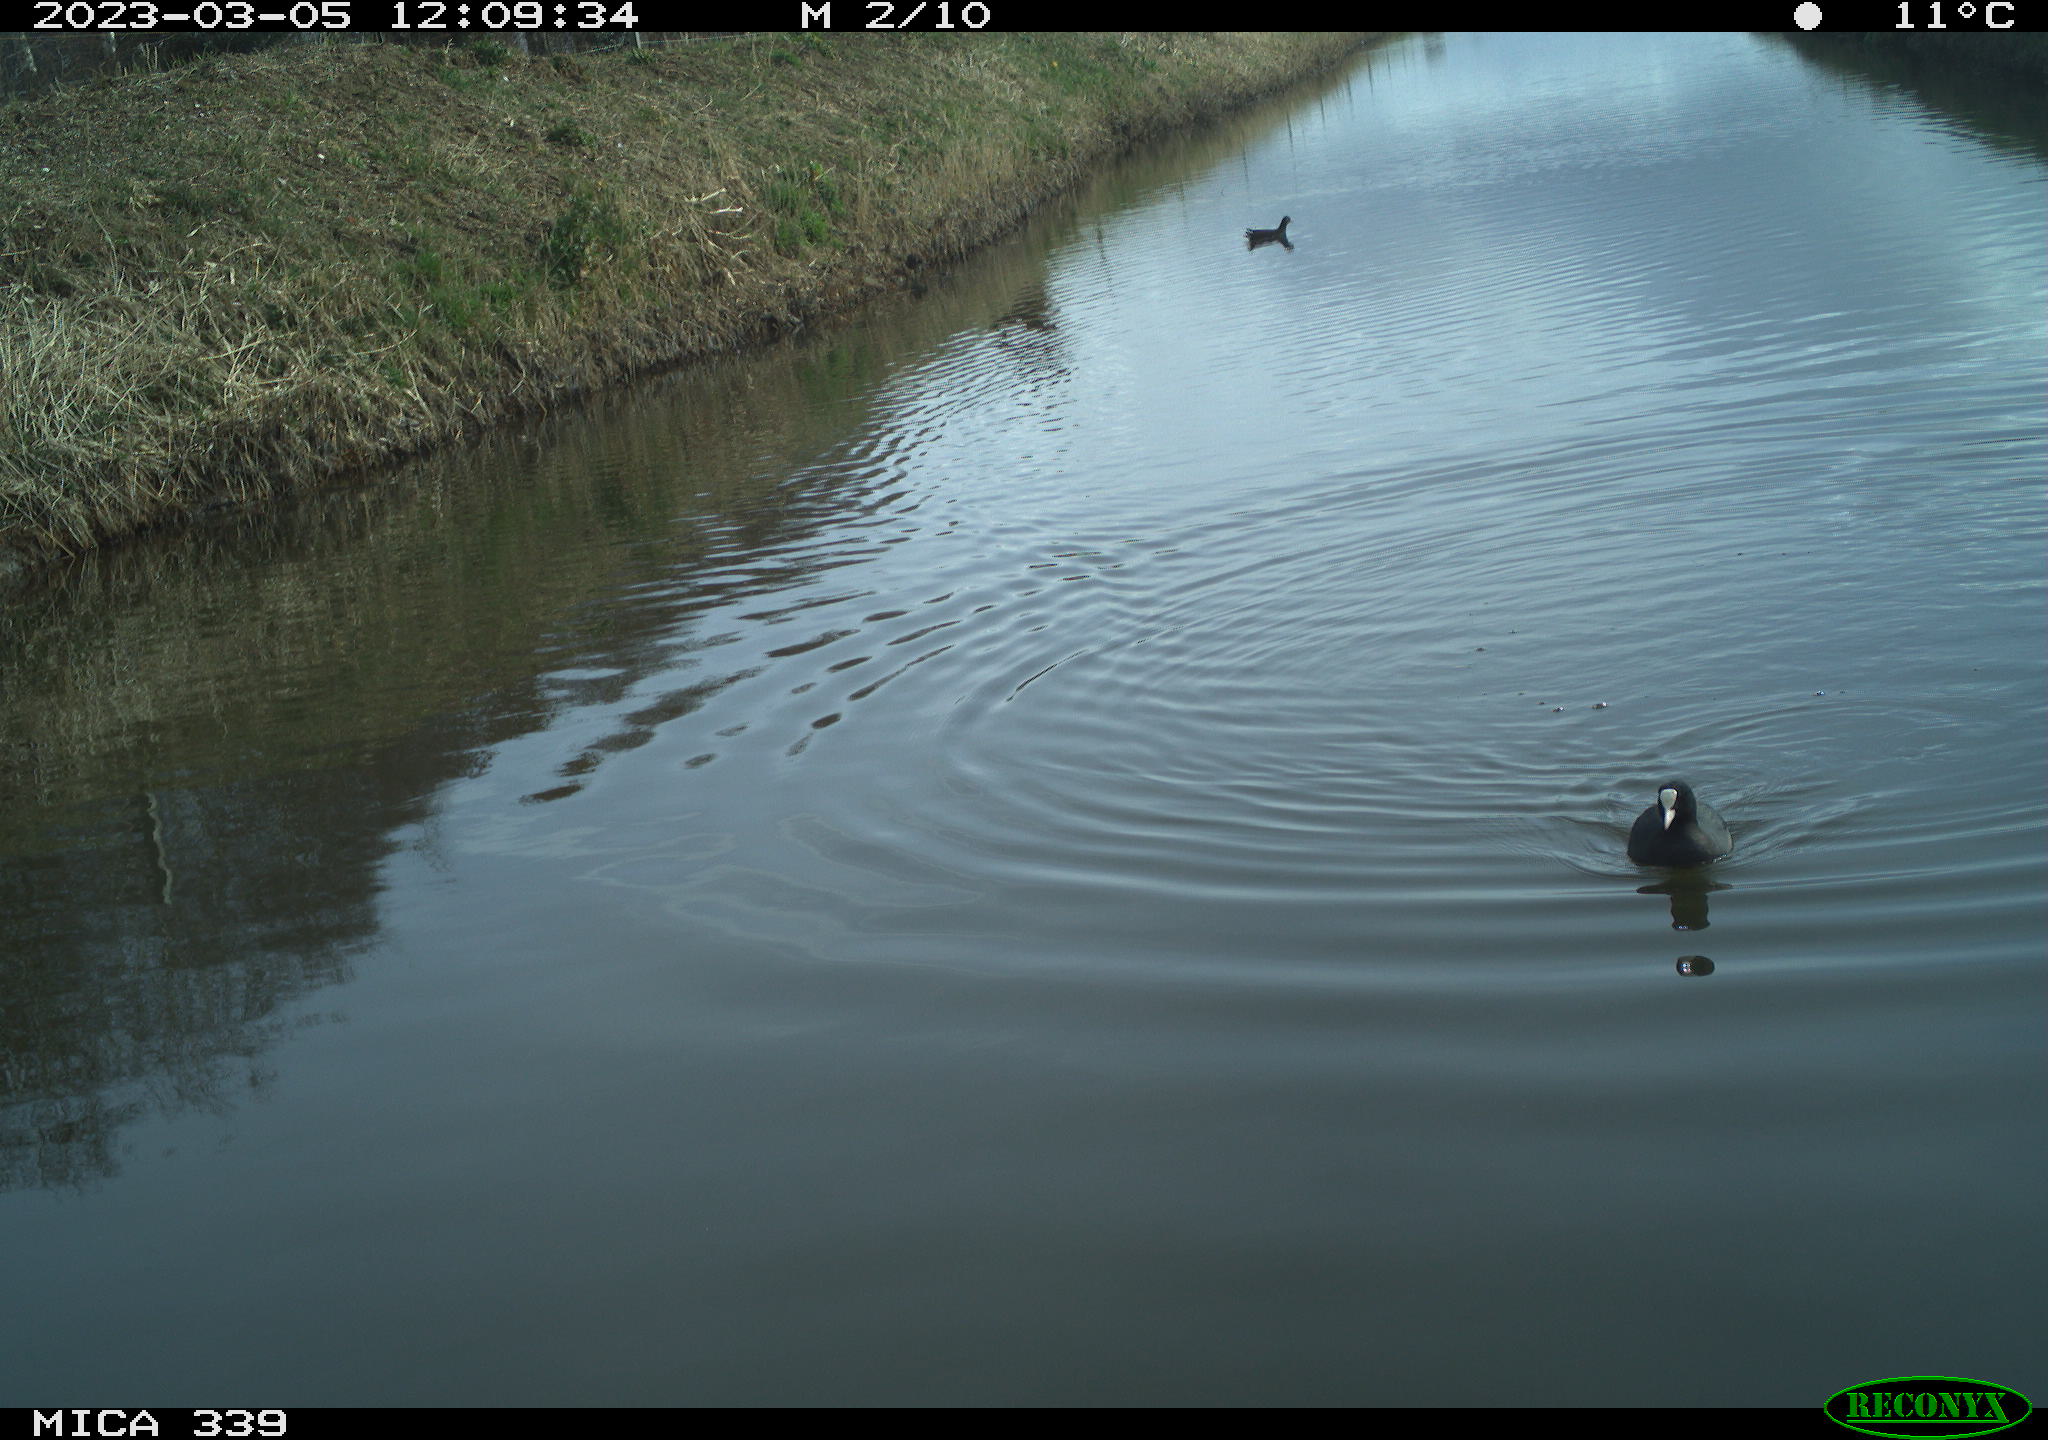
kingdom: Animalia
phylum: Chordata
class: Aves
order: Gruiformes
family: Rallidae
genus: Fulica
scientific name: Fulica atra
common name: Eurasian coot
